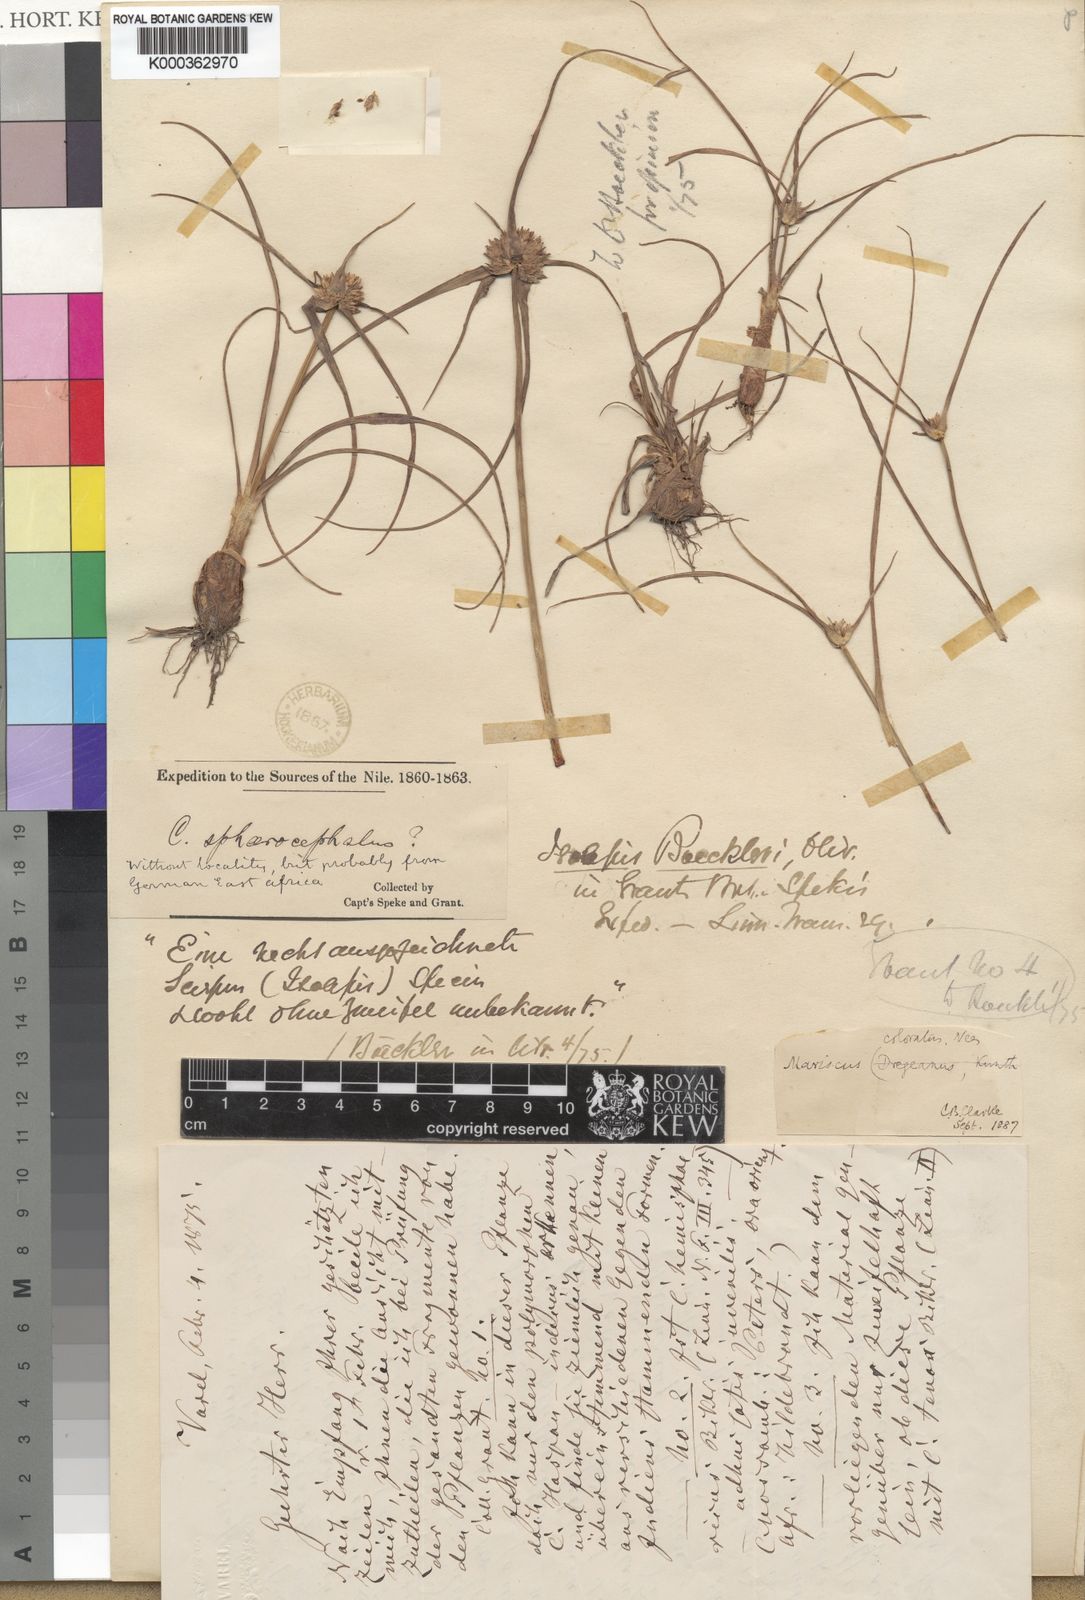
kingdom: Plantae
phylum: Tracheophyta
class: Liliopsida
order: Poales
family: Cyperaceae
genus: Cyperus
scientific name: Cyperus sphaerocephalus
